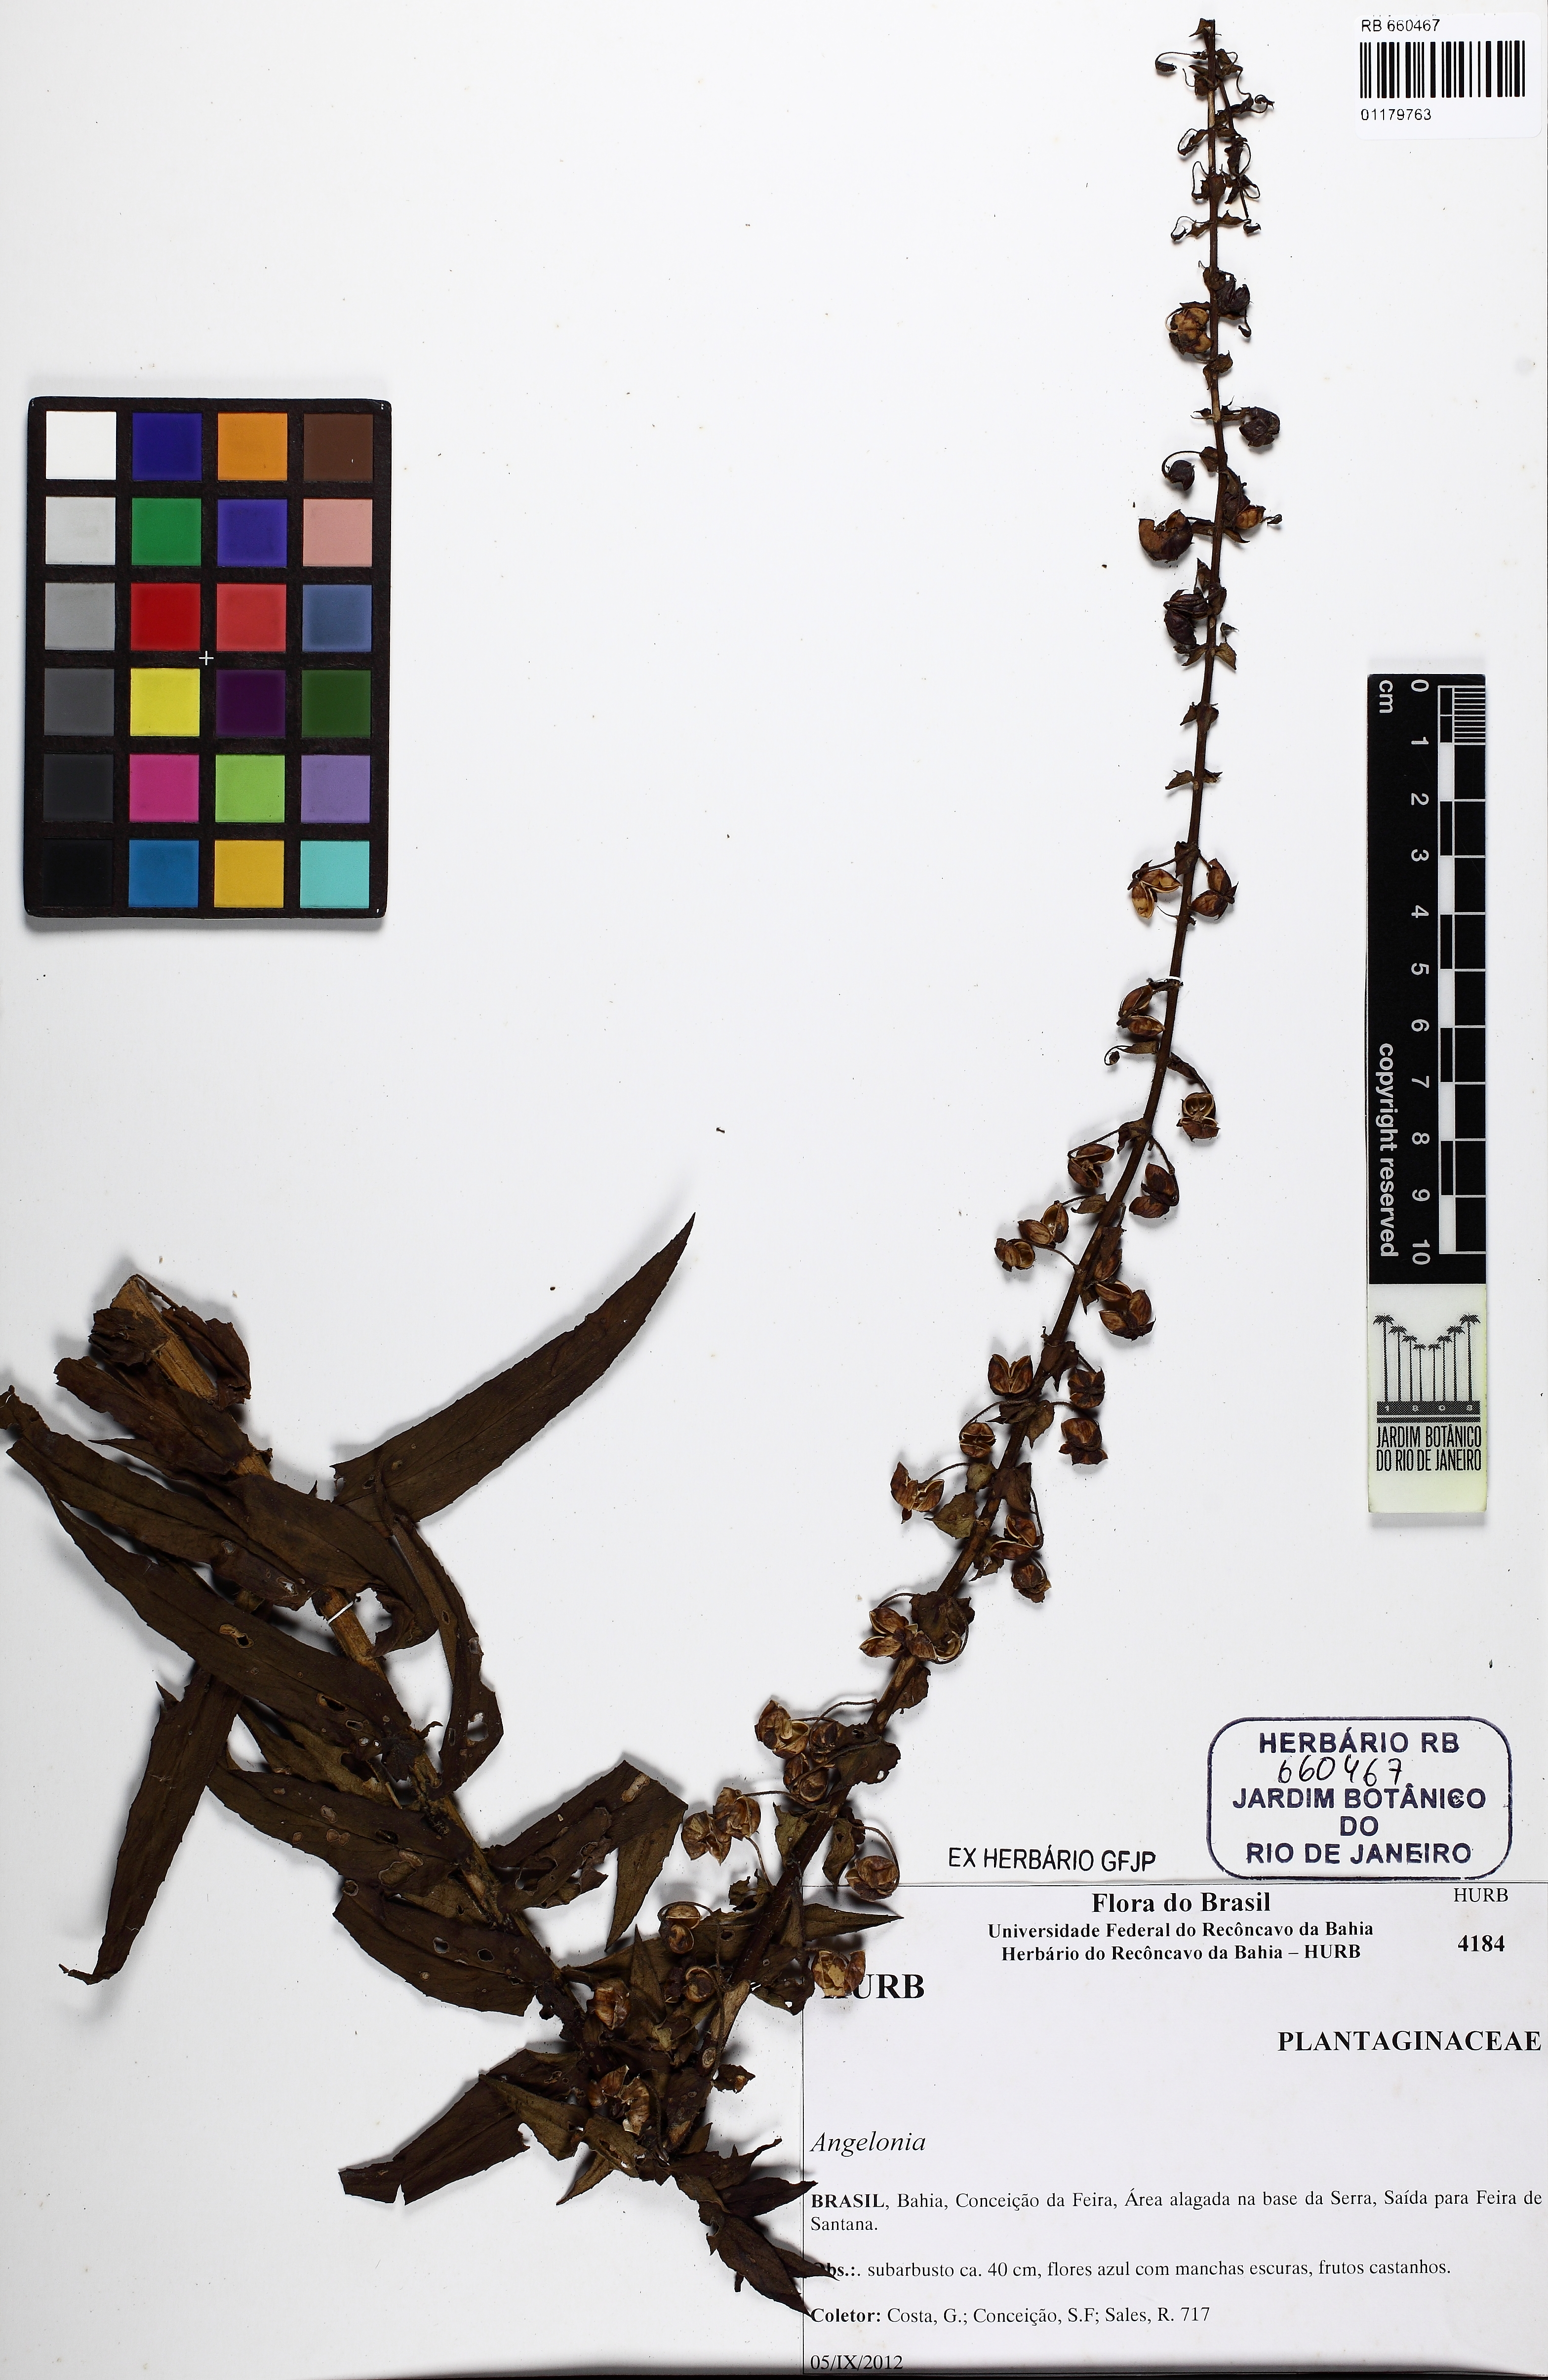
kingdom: Plantae
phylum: Tracheophyta
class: Magnoliopsida
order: Lamiales
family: Plantaginaceae
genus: Angelonia
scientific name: Angelonia salicariifolia
